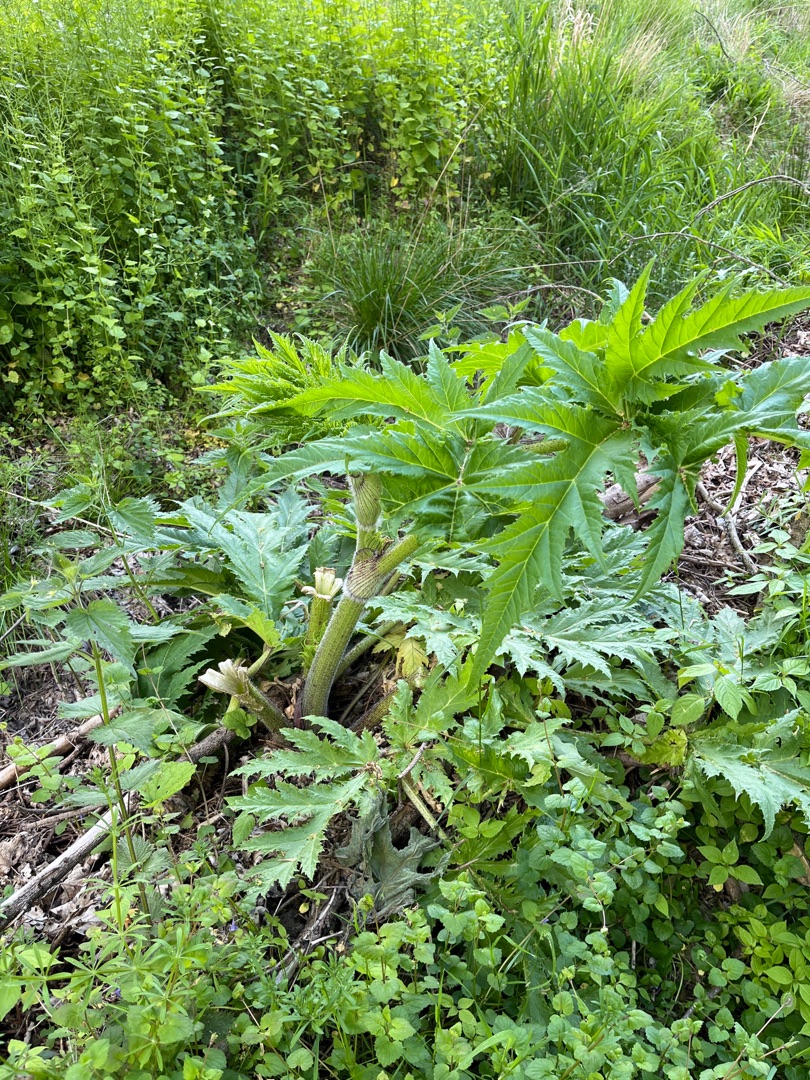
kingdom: Plantae
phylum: Tracheophyta
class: Magnoliopsida
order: Apiales
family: Apiaceae
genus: Heracleum
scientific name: Heracleum mantegazzianum
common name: Kæmpe-bjørneklo
